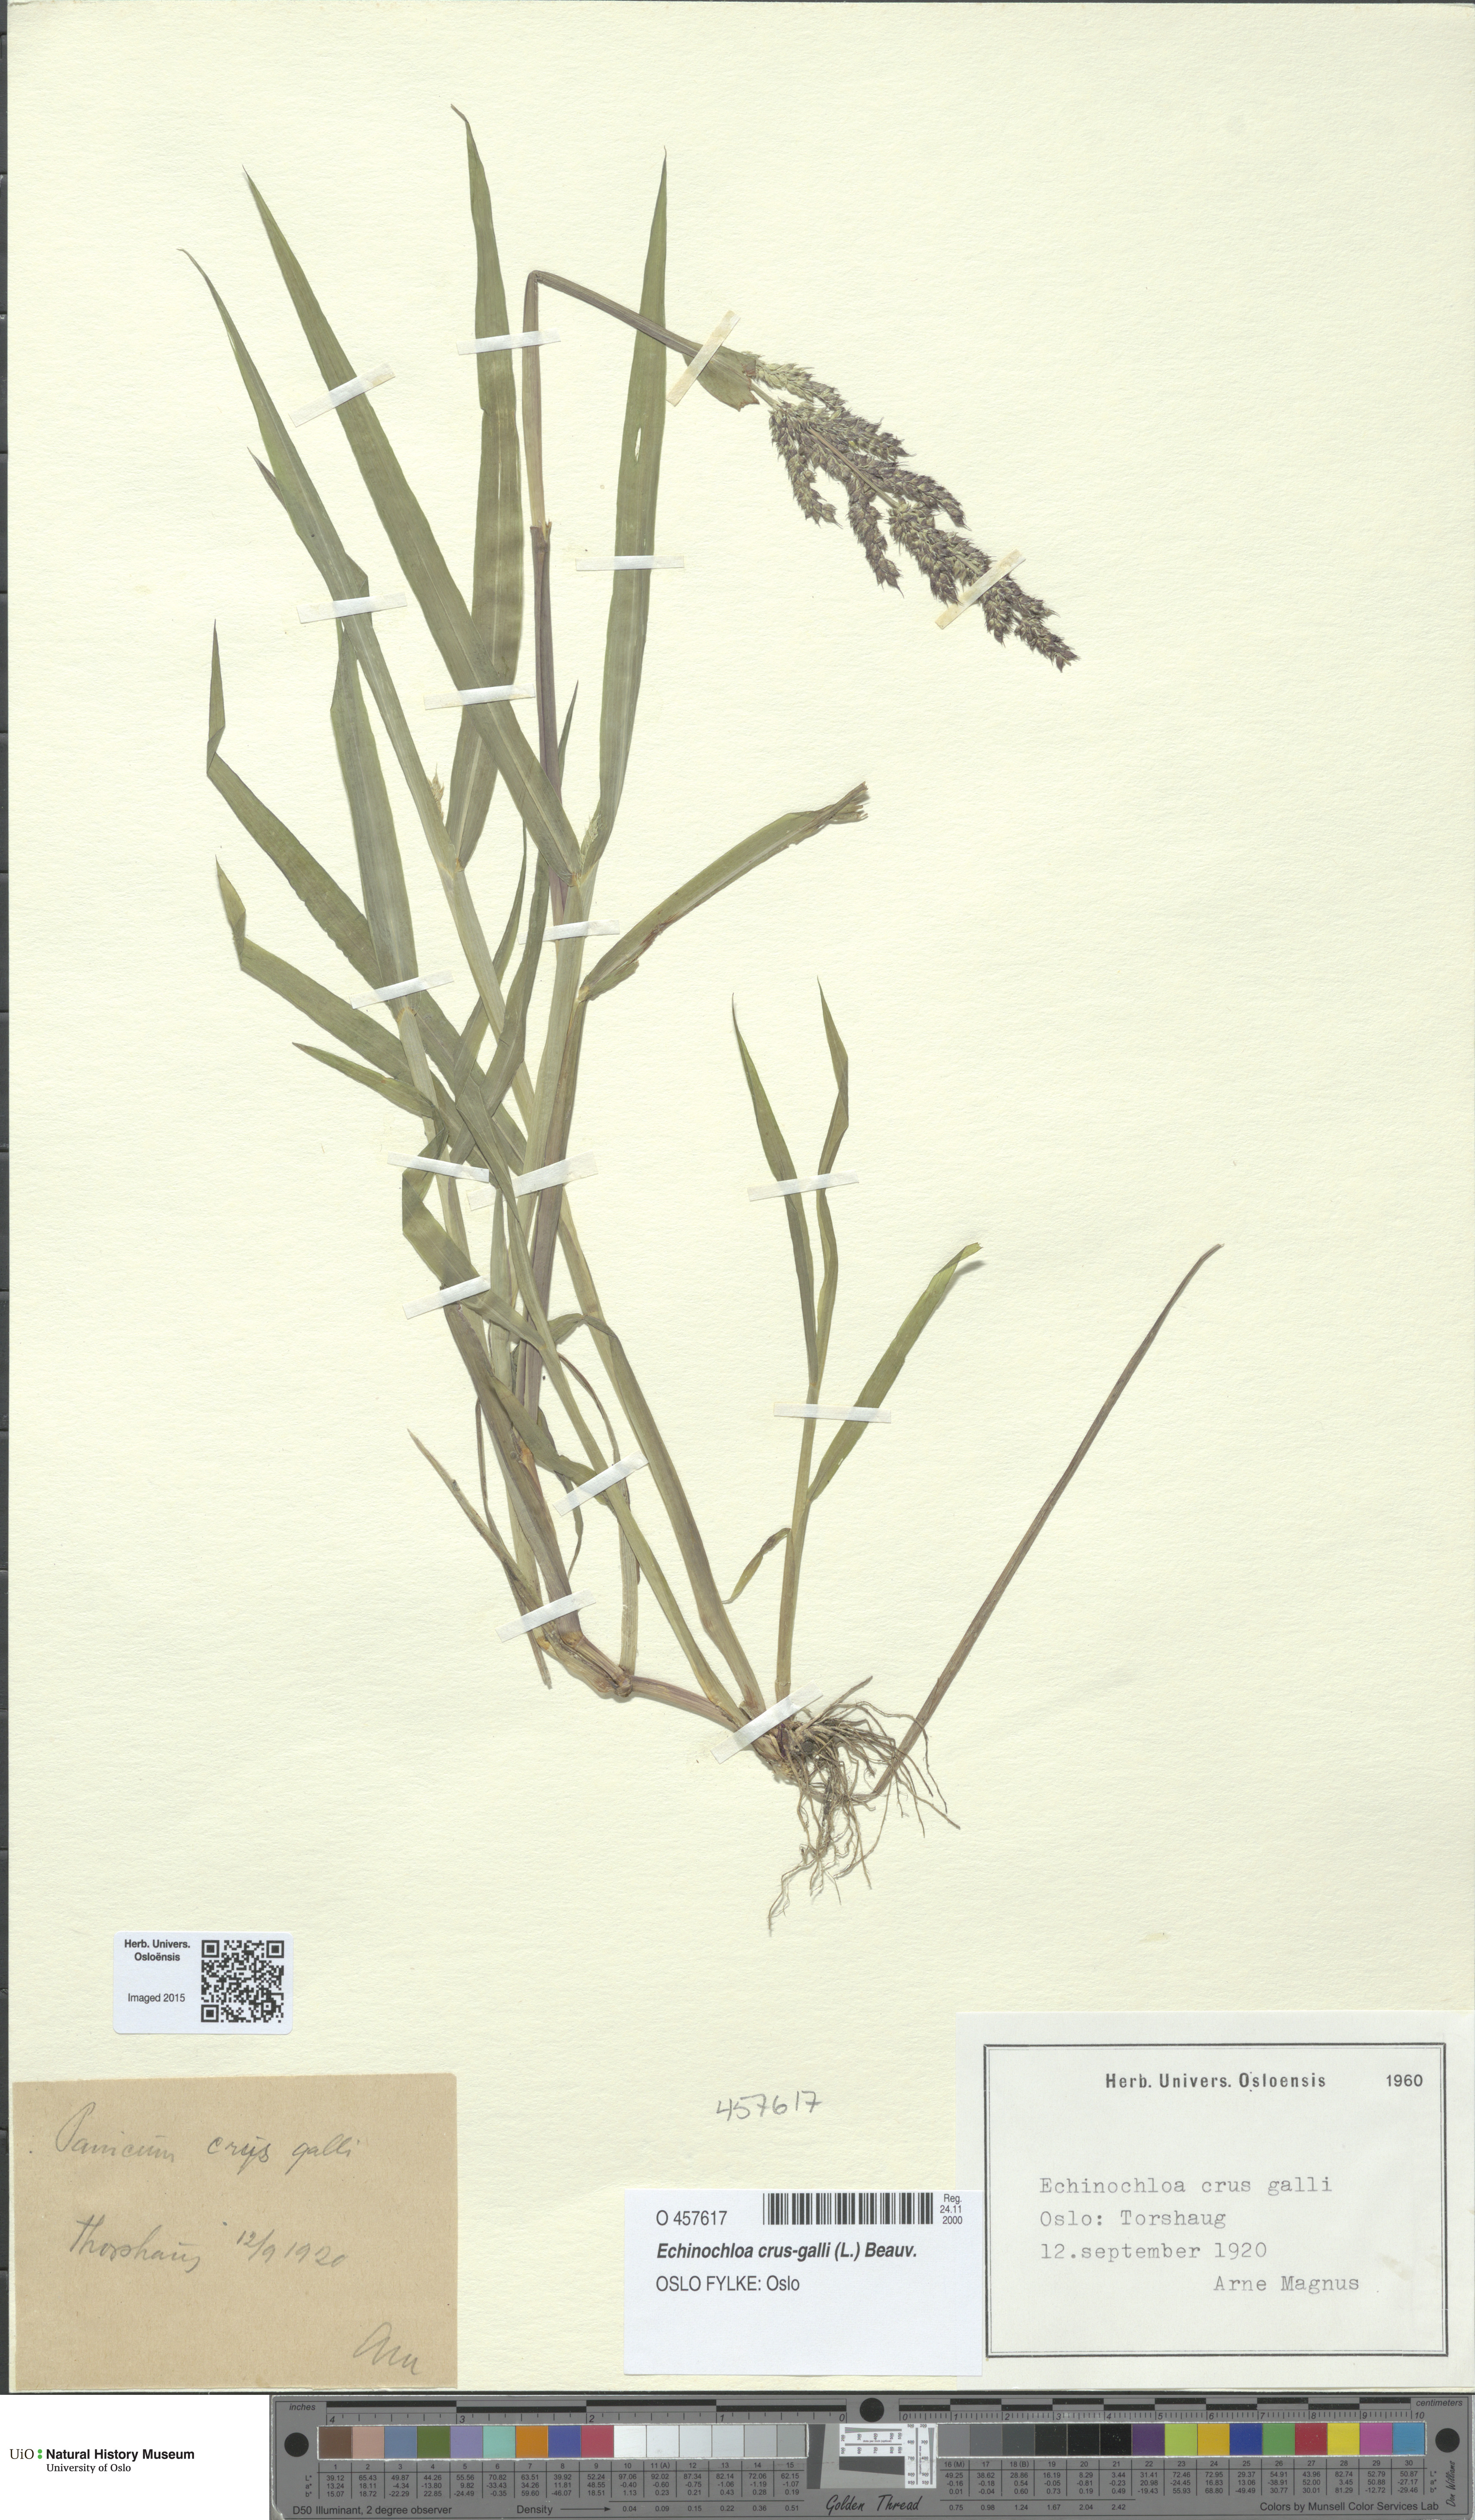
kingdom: Plantae
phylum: Tracheophyta
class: Liliopsida
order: Poales
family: Poaceae
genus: Echinochloa
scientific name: Echinochloa crus-galli
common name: Cockspur
